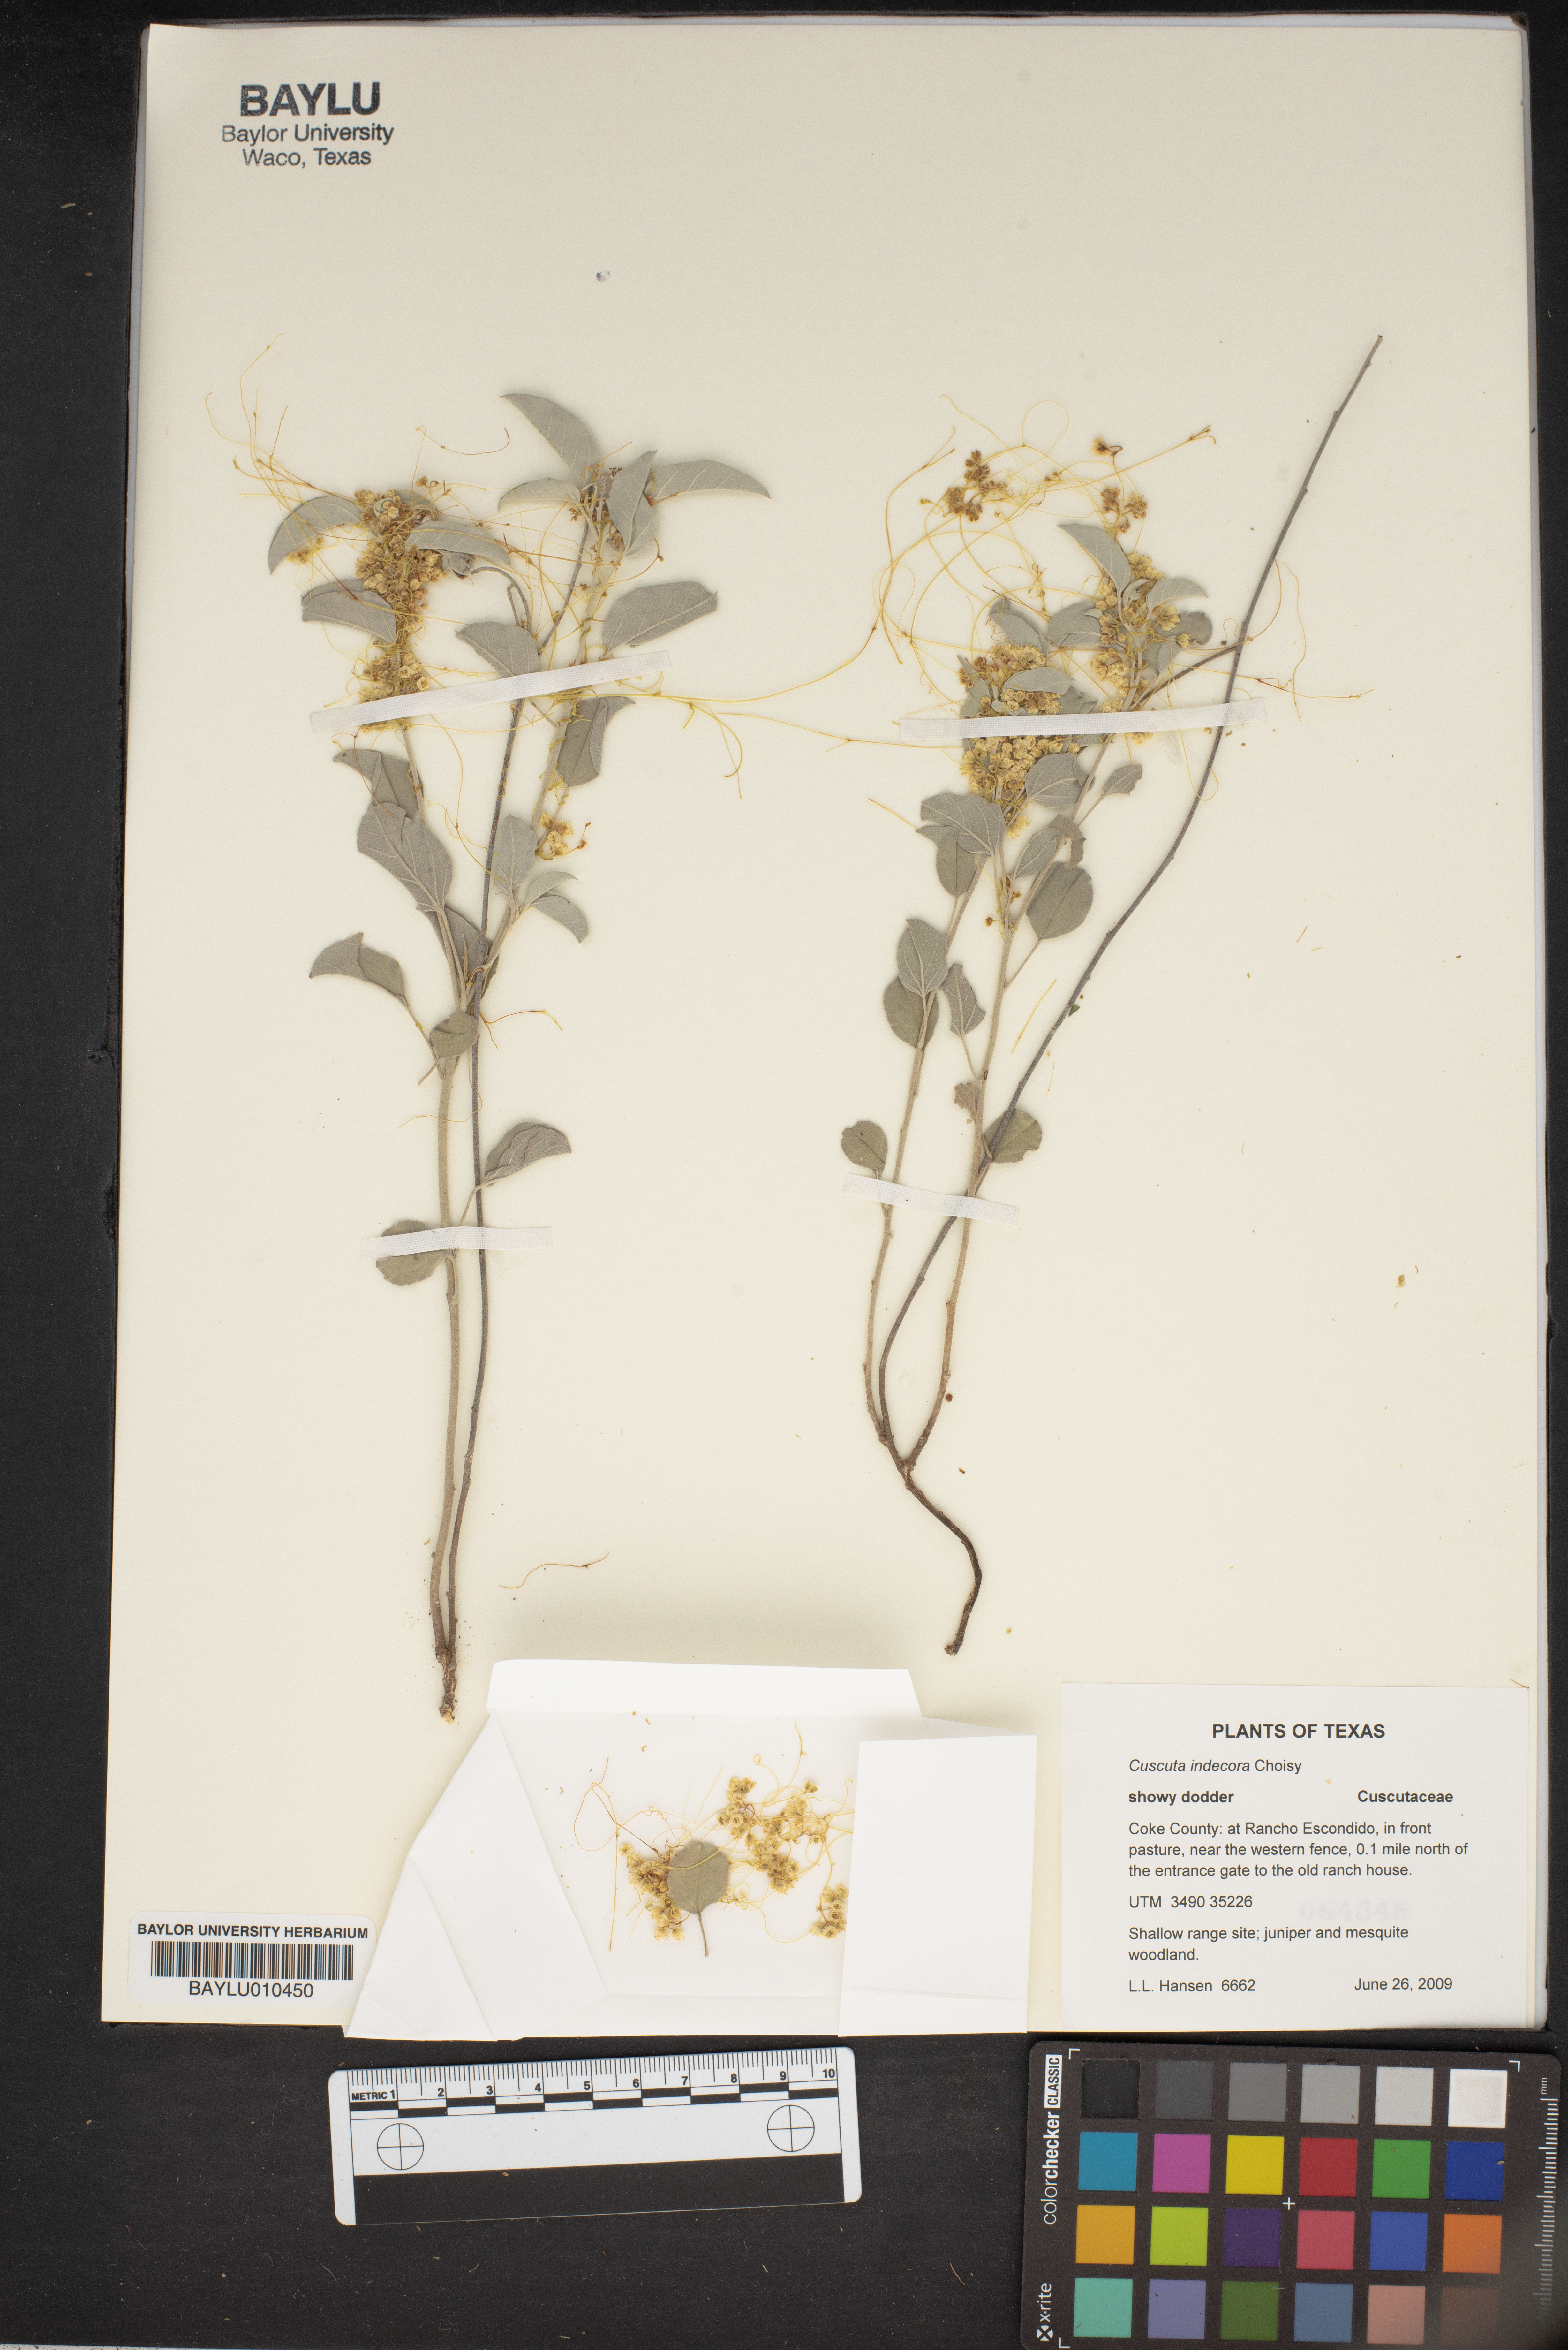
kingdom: Plantae
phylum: Tracheophyta
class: Magnoliopsida
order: Solanales
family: Convolvulaceae
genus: Cuscuta
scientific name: Cuscuta indecora
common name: Large-seed dodder
